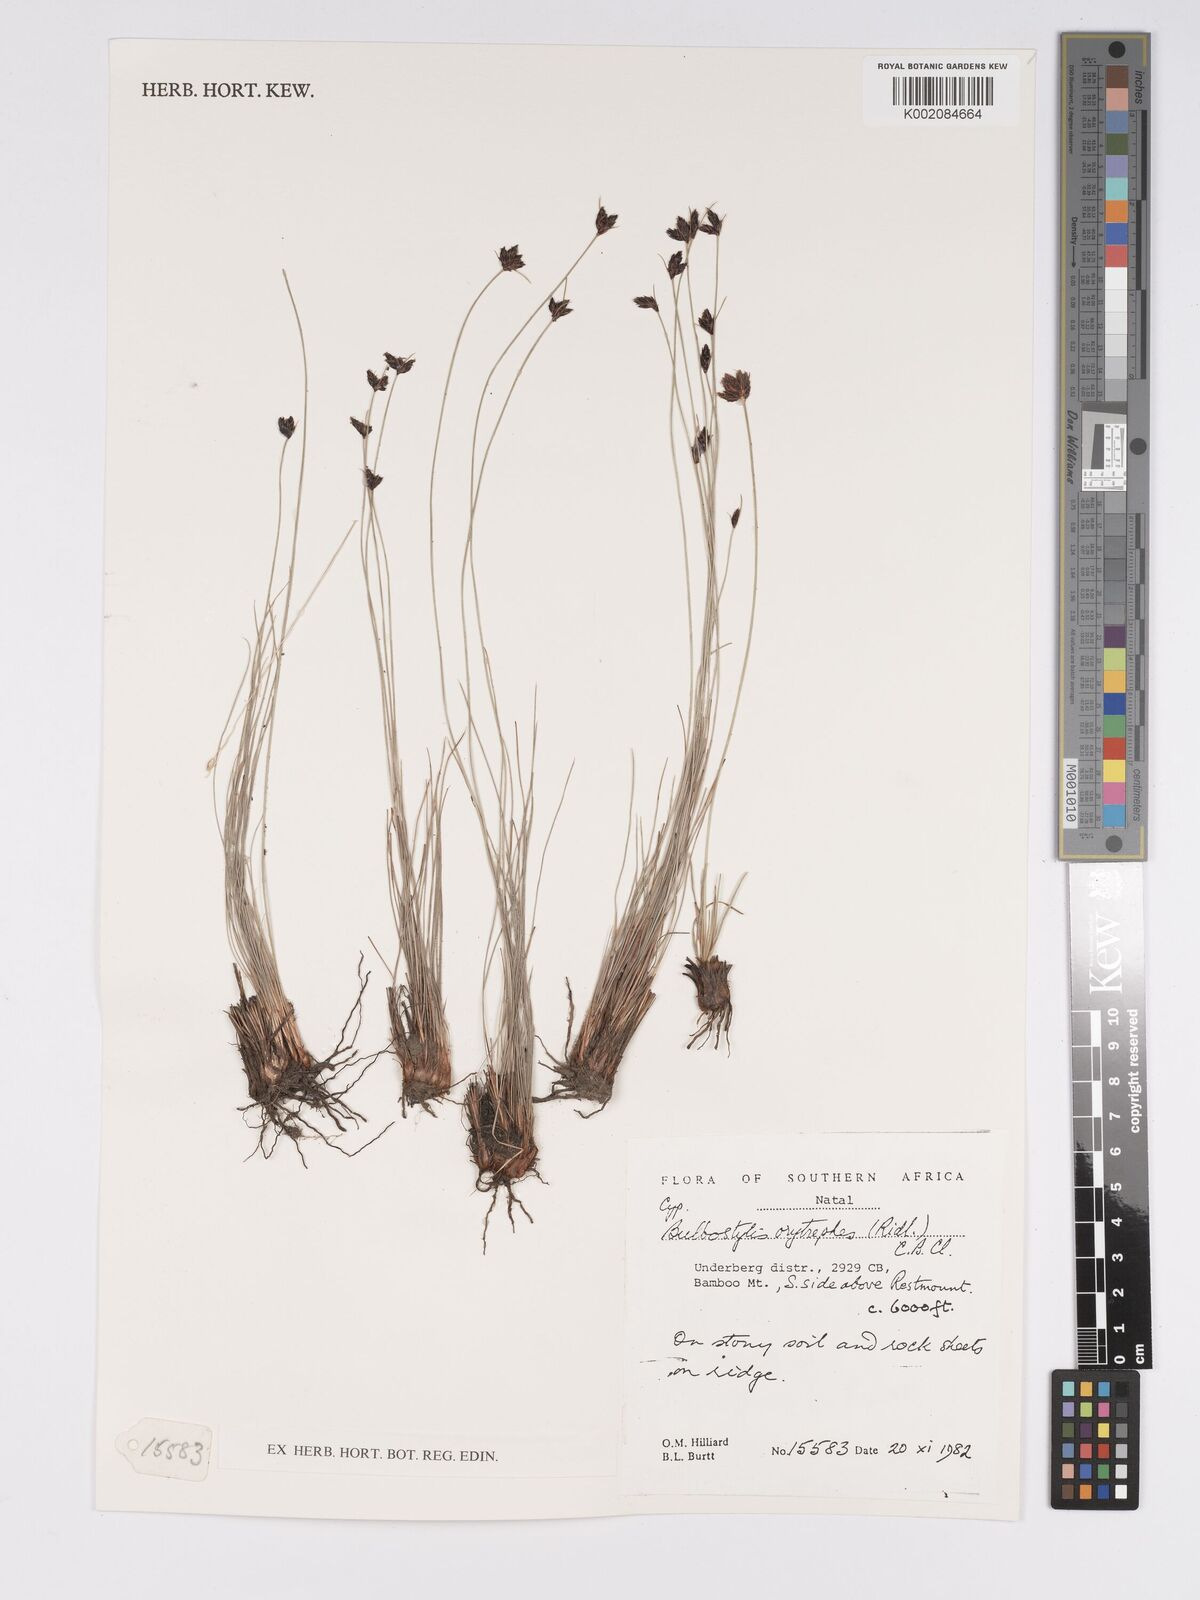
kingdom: Plantae
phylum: Tracheophyta
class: Liliopsida
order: Poales
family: Cyperaceae
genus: Bulbostylis
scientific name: Bulbostylis oritrephes
